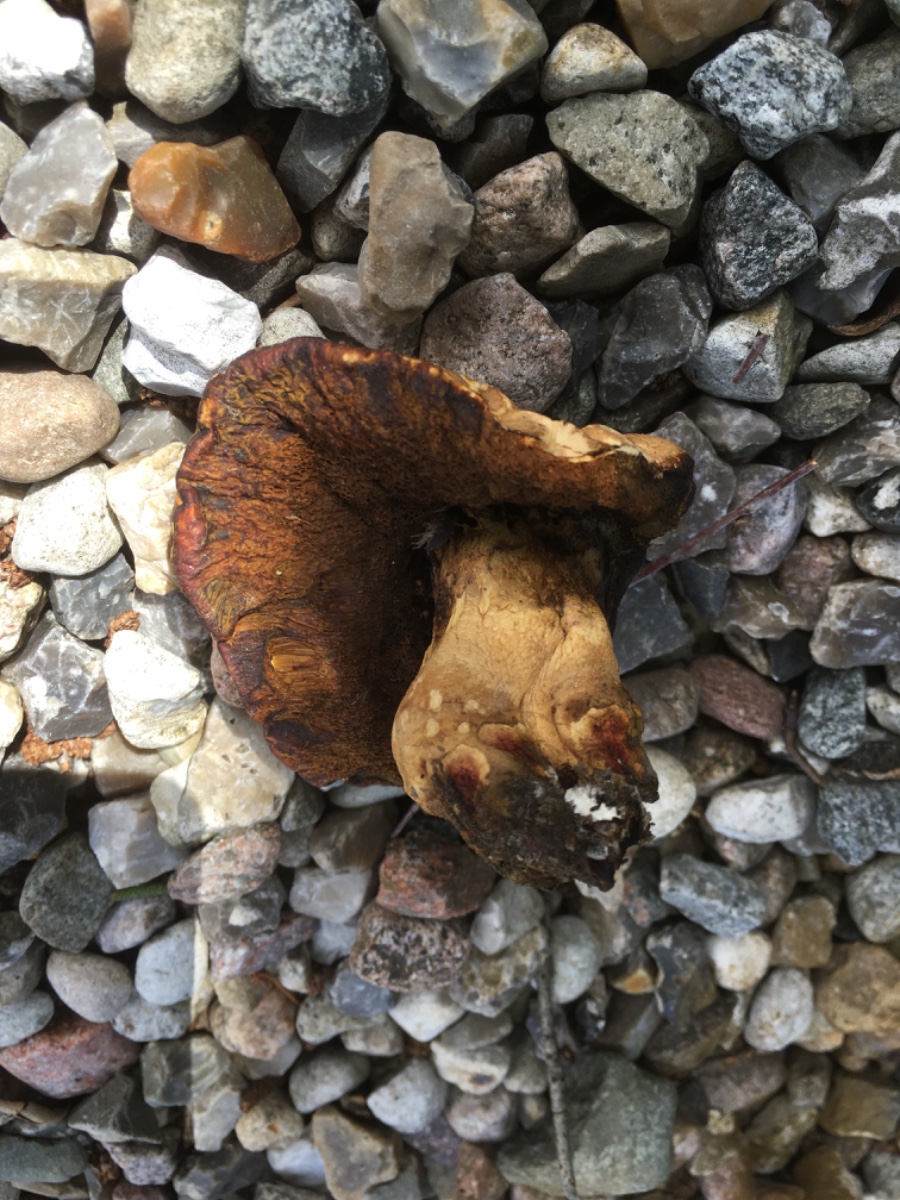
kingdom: Fungi
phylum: Basidiomycota
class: Agaricomycetes
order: Boletales
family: Boletaceae
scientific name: Boletaceae
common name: rørhatfamilien
